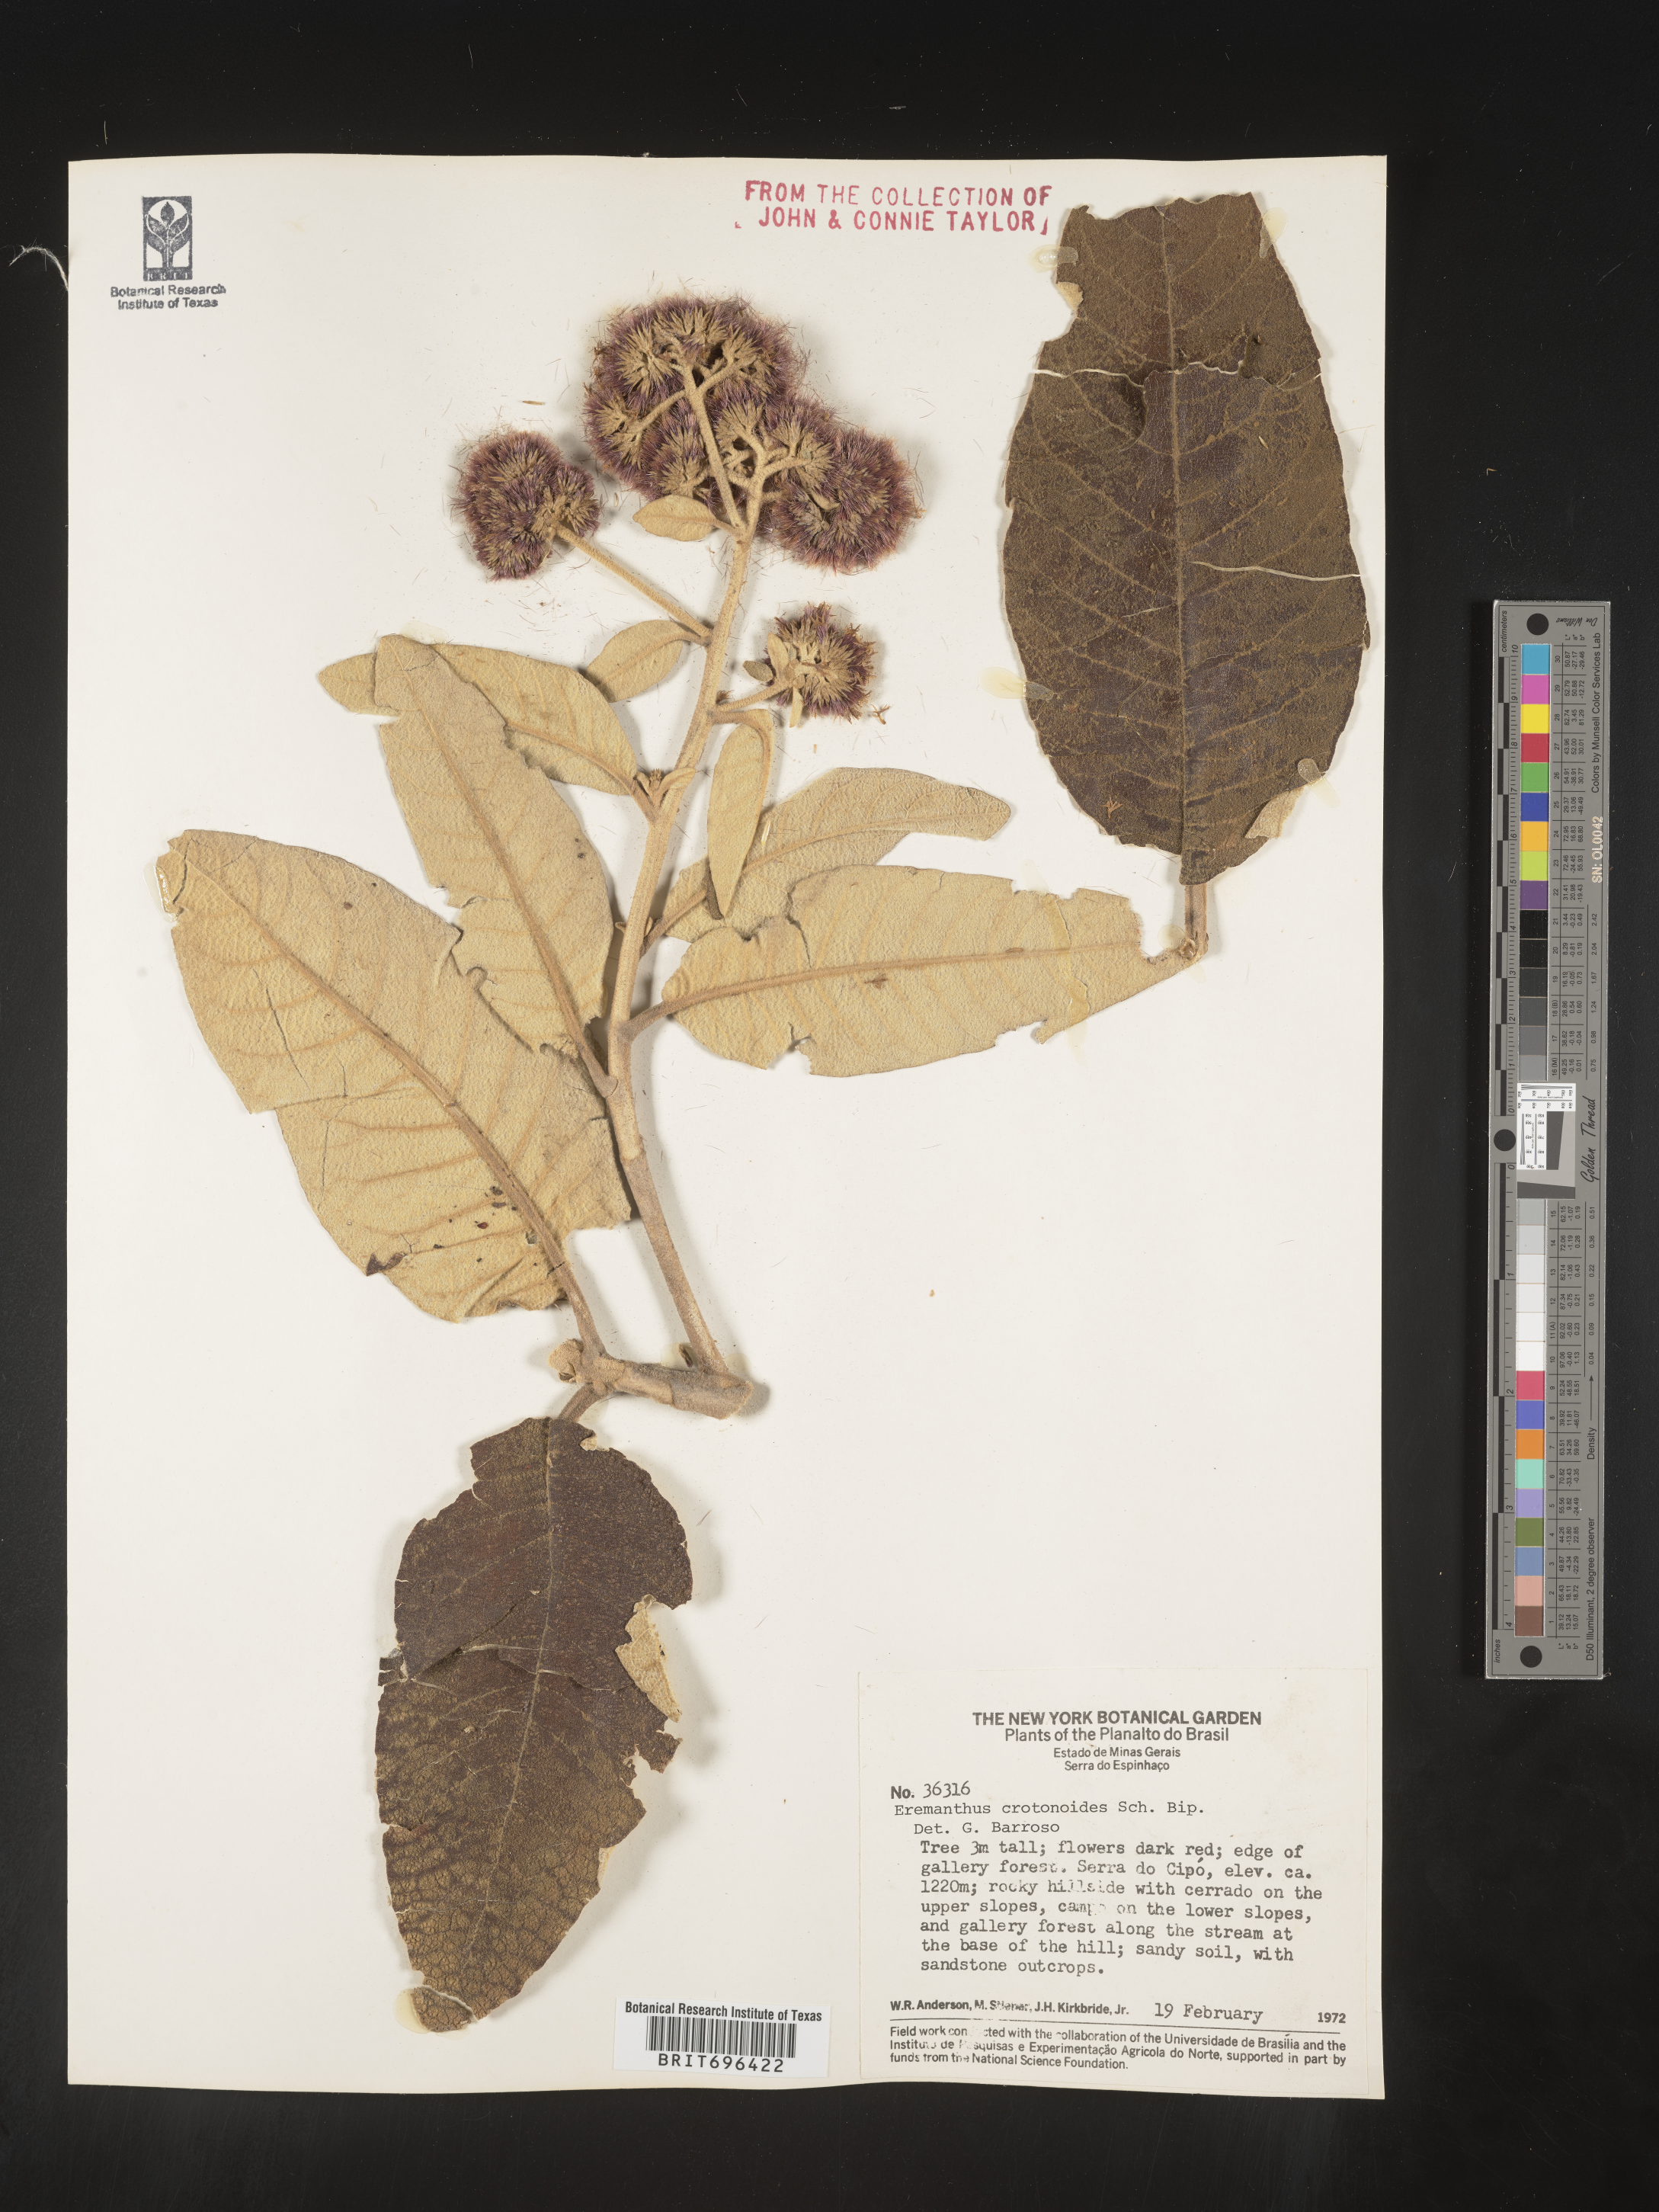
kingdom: Plantae
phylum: Tracheophyta
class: Magnoliopsida
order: Asterales
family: Asteraceae
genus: Eremanthus
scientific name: Eremanthus
